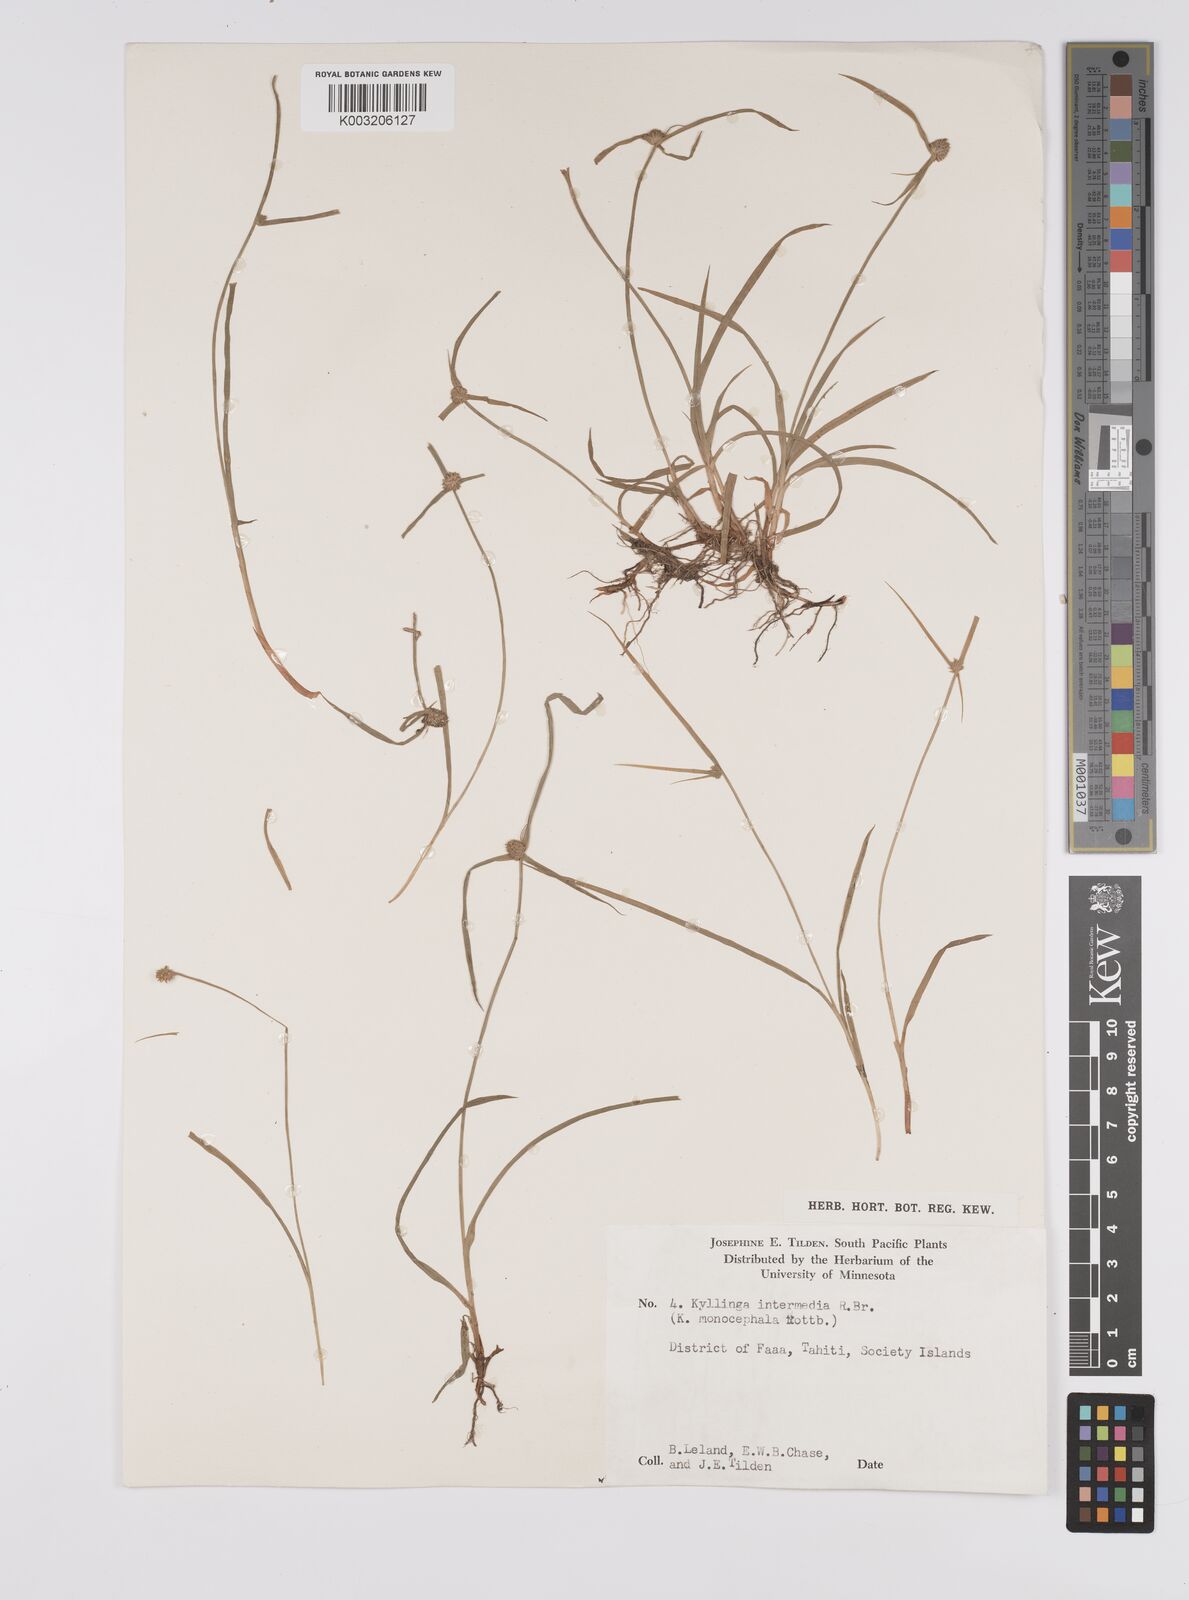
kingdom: Plantae
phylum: Tracheophyta
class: Liliopsida
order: Poales
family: Cyperaceae
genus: Cyperus
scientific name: Cyperus nemoralis
